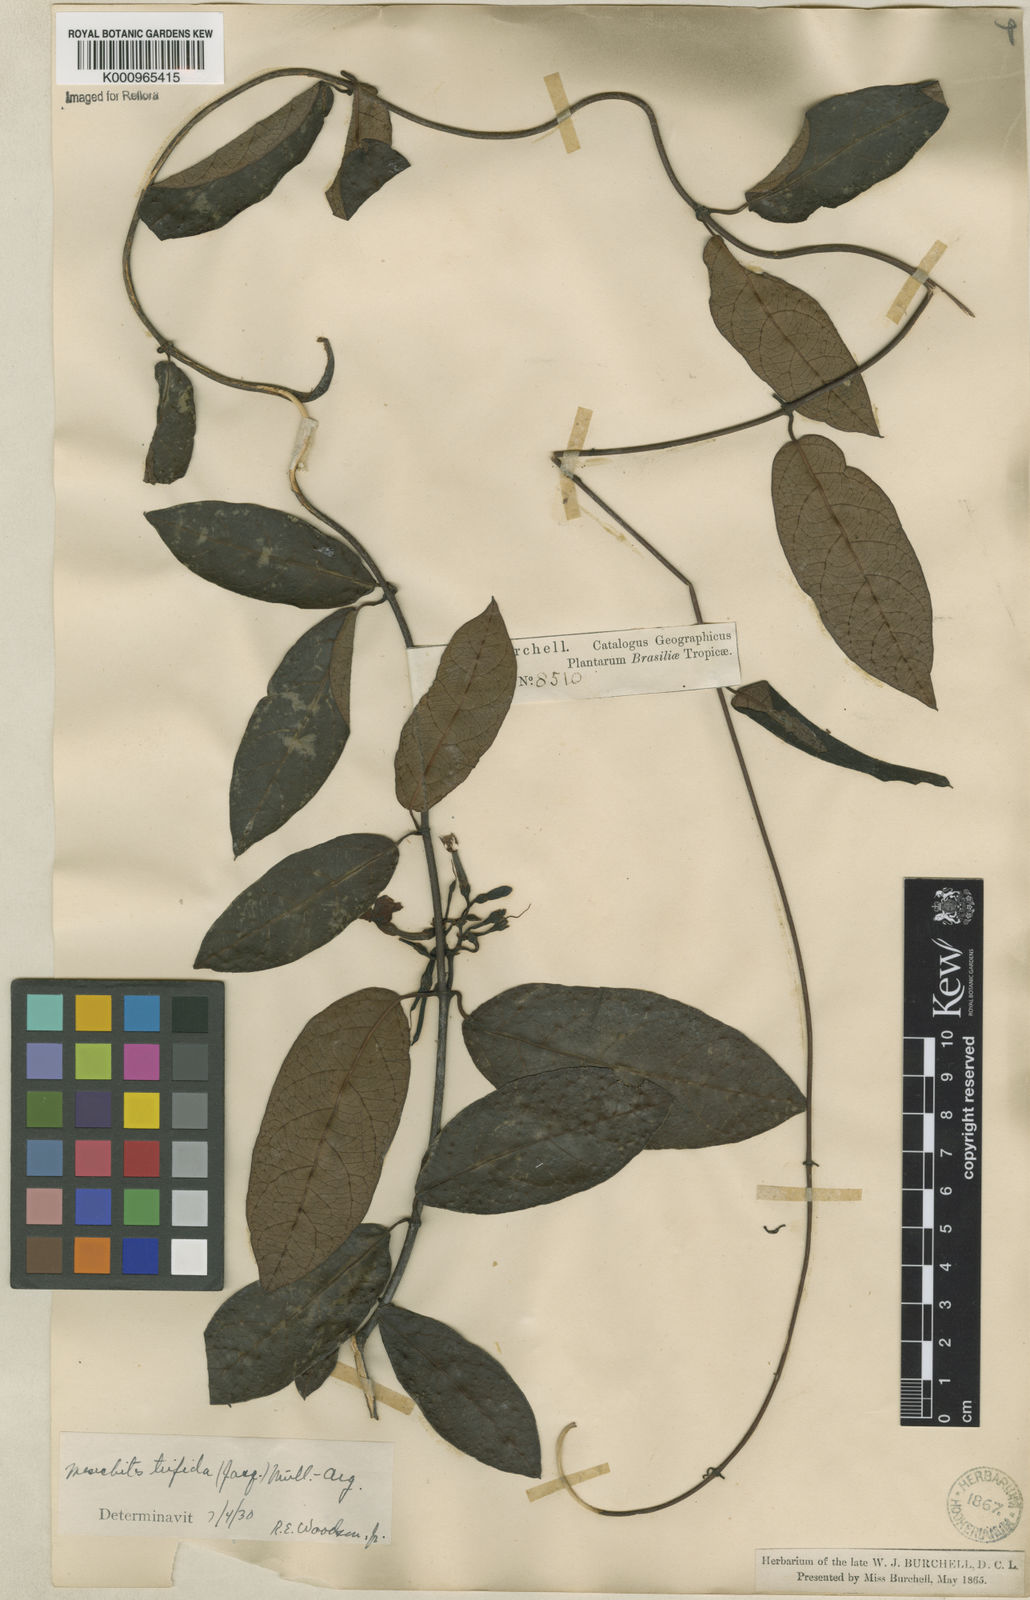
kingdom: Plantae
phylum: Tracheophyta
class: Magnoliopsida
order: Gentianales
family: Apocynaceae
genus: Mesechites
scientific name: Mesechites
